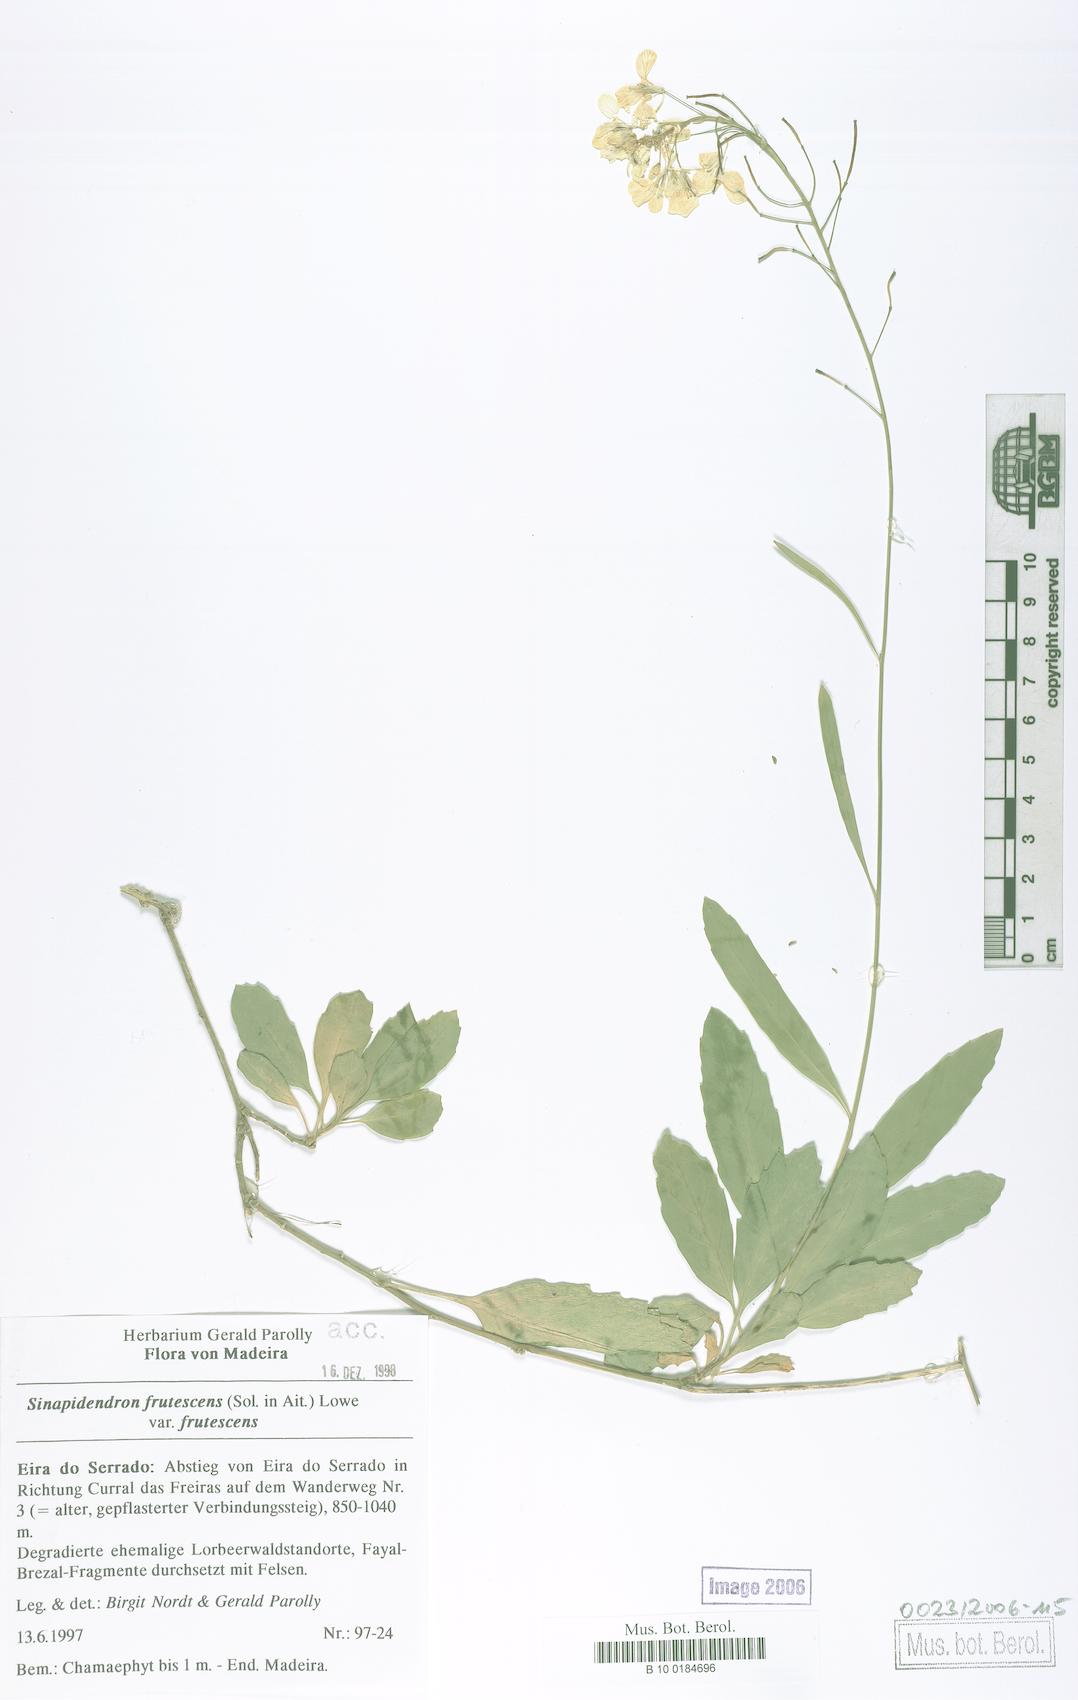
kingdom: Plantae
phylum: Tracheophyta
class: Magnoliopsida
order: Brassicales
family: Brassicaceae
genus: Sinapidendron
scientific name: Sinapidendron frutescens
